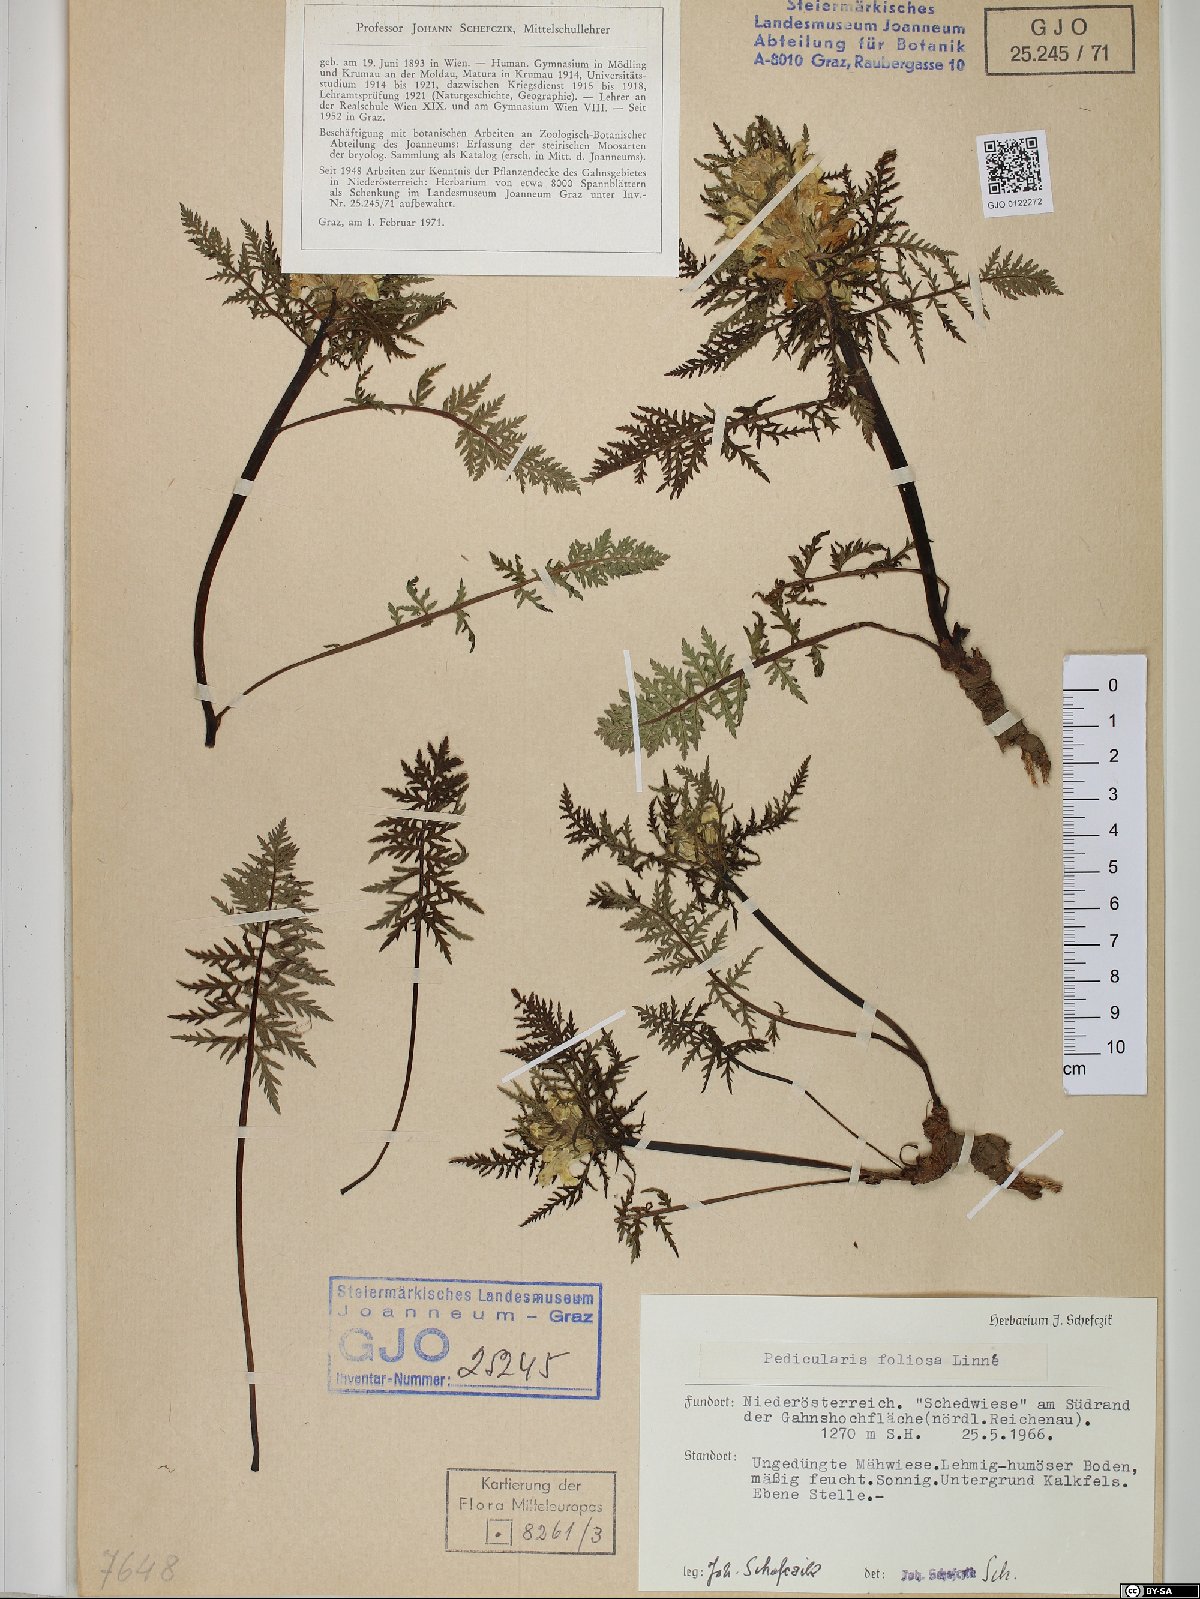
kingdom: Plantae
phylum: Tracheophyta
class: Magnoliopsida
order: Lamiales
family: Orobanchaceae
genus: Pedicularis
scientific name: Pedicularis foliosa
